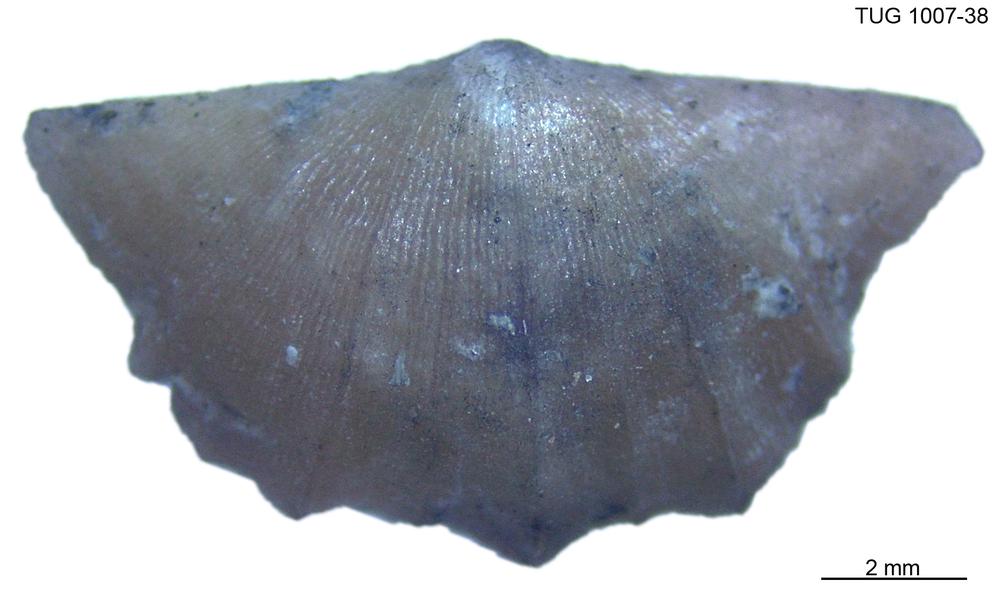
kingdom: Animalia
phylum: Brachiopoda
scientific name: Brachiopoda
